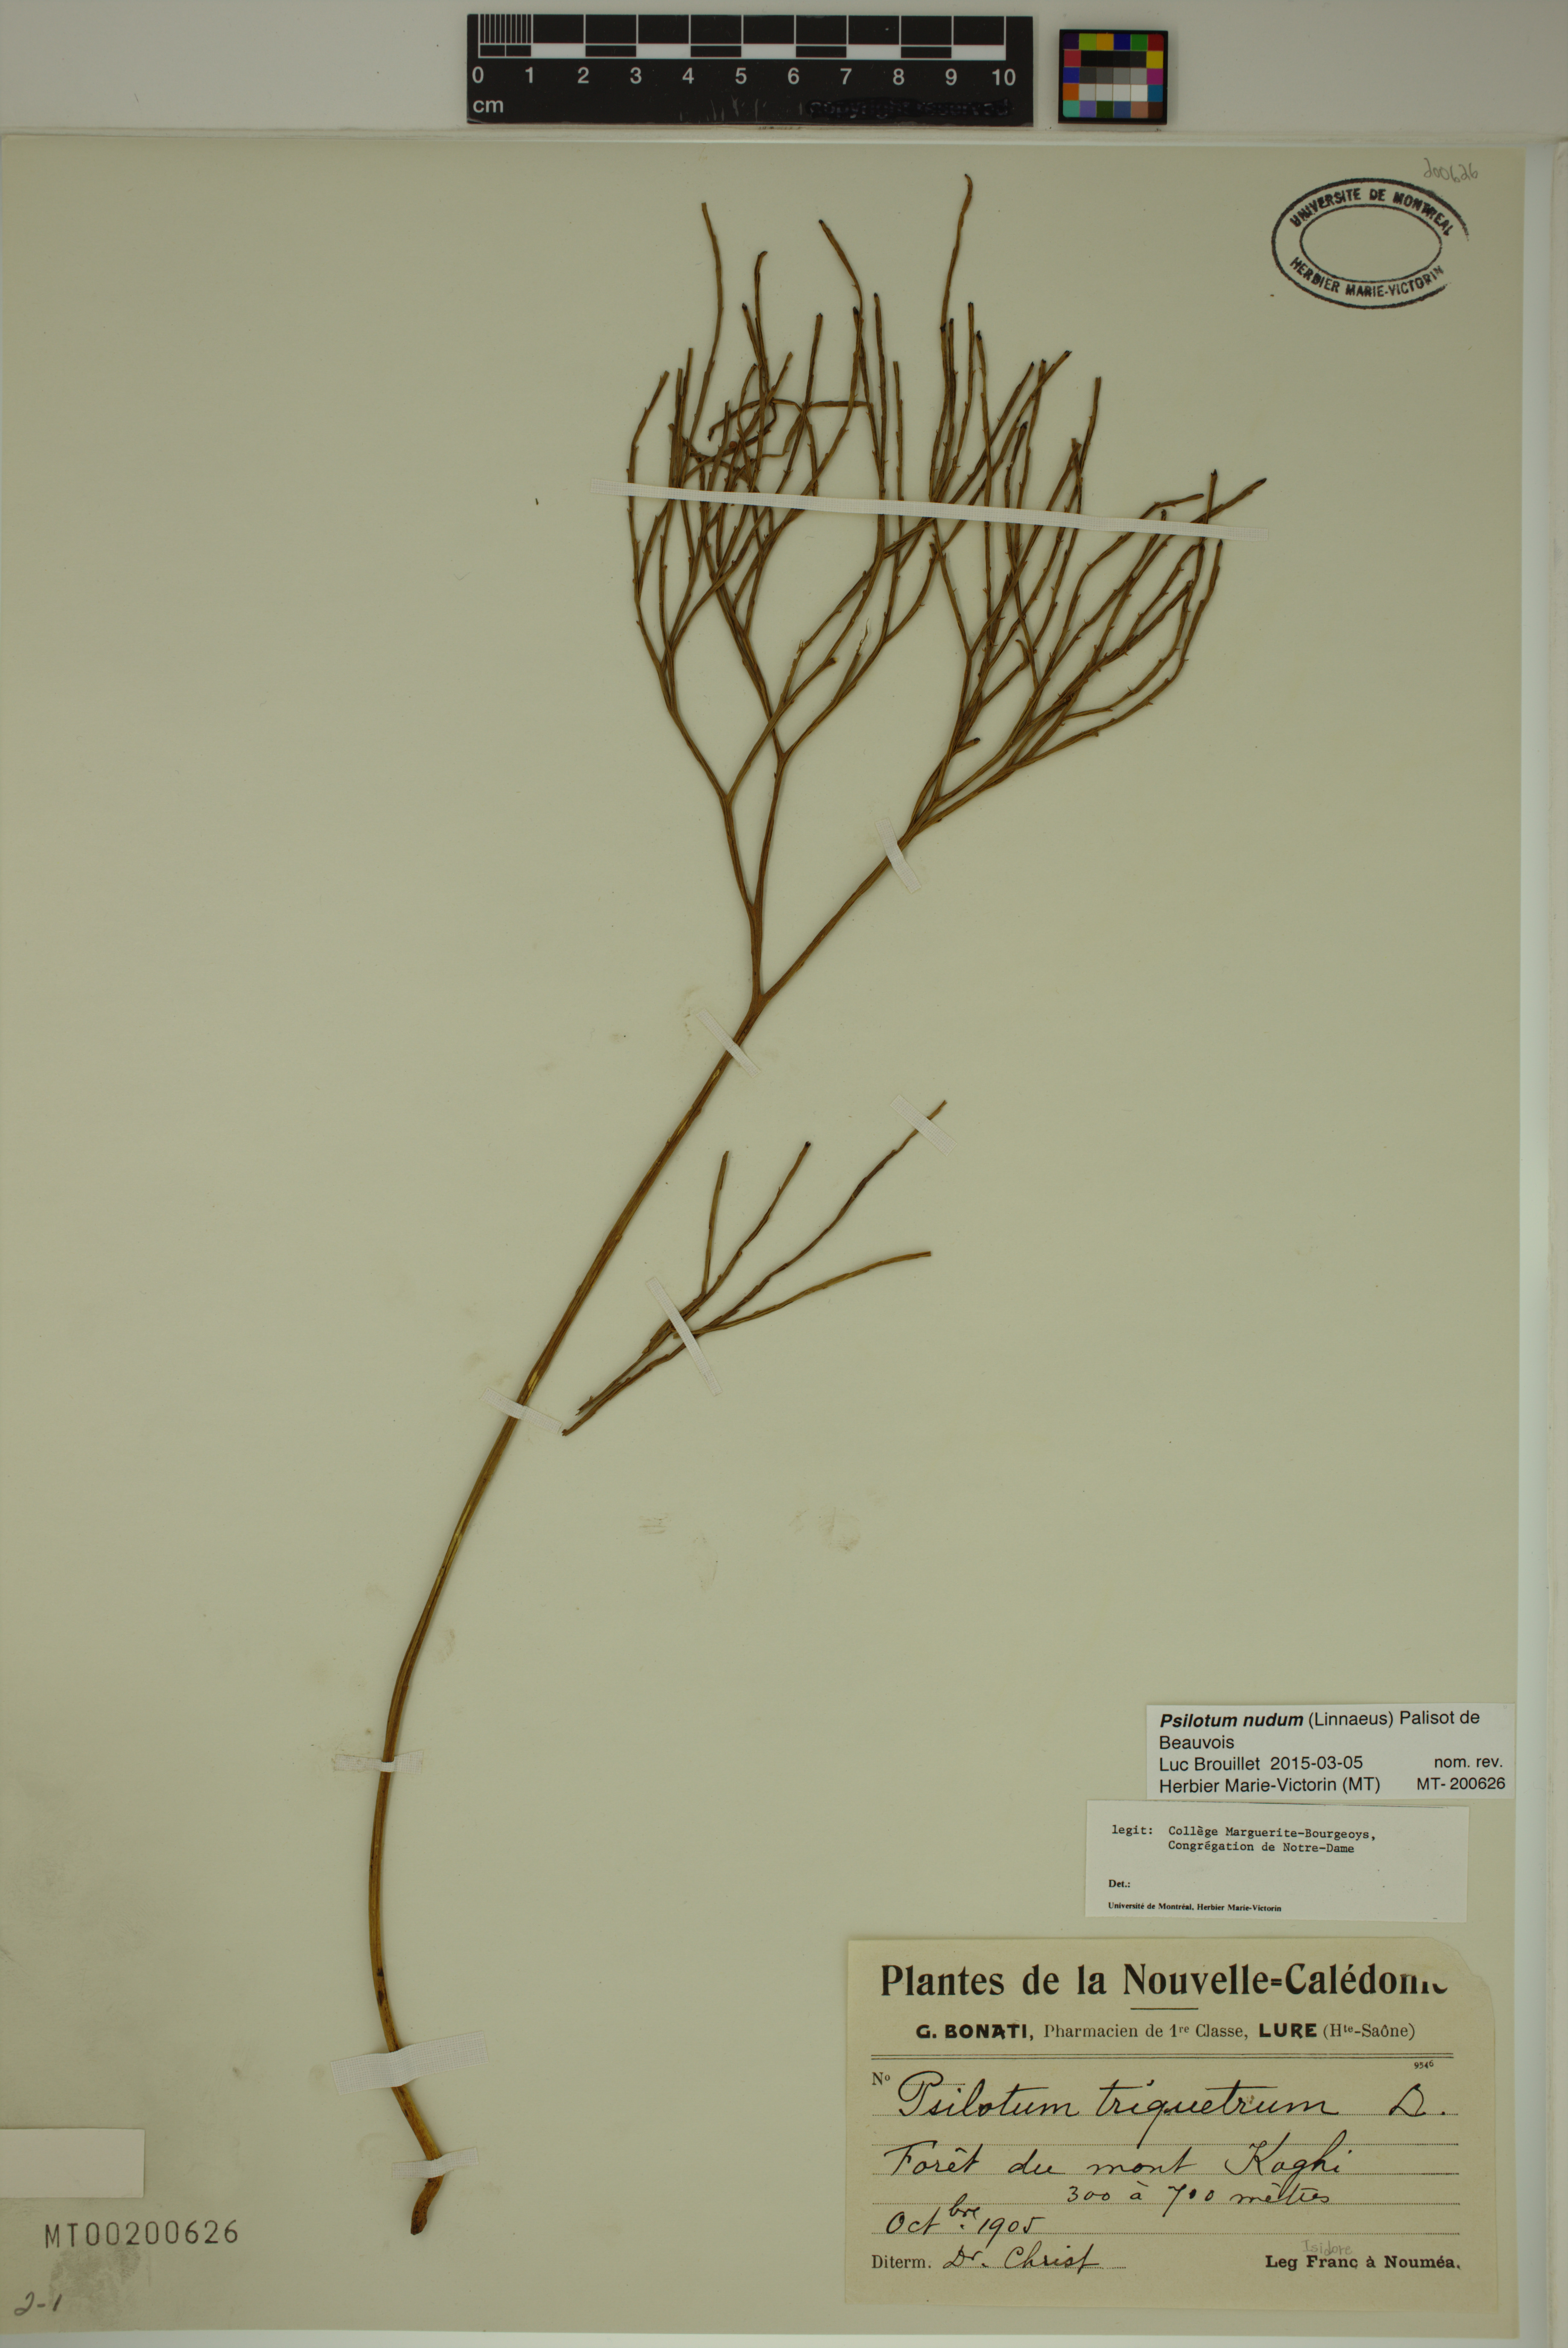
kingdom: Plantae
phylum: Tracheophyta
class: Polypodiopsida
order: Psilotales
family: Psilotaceae
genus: Psilotum
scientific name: Psilotum nudum
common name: Skeleton fork fern
